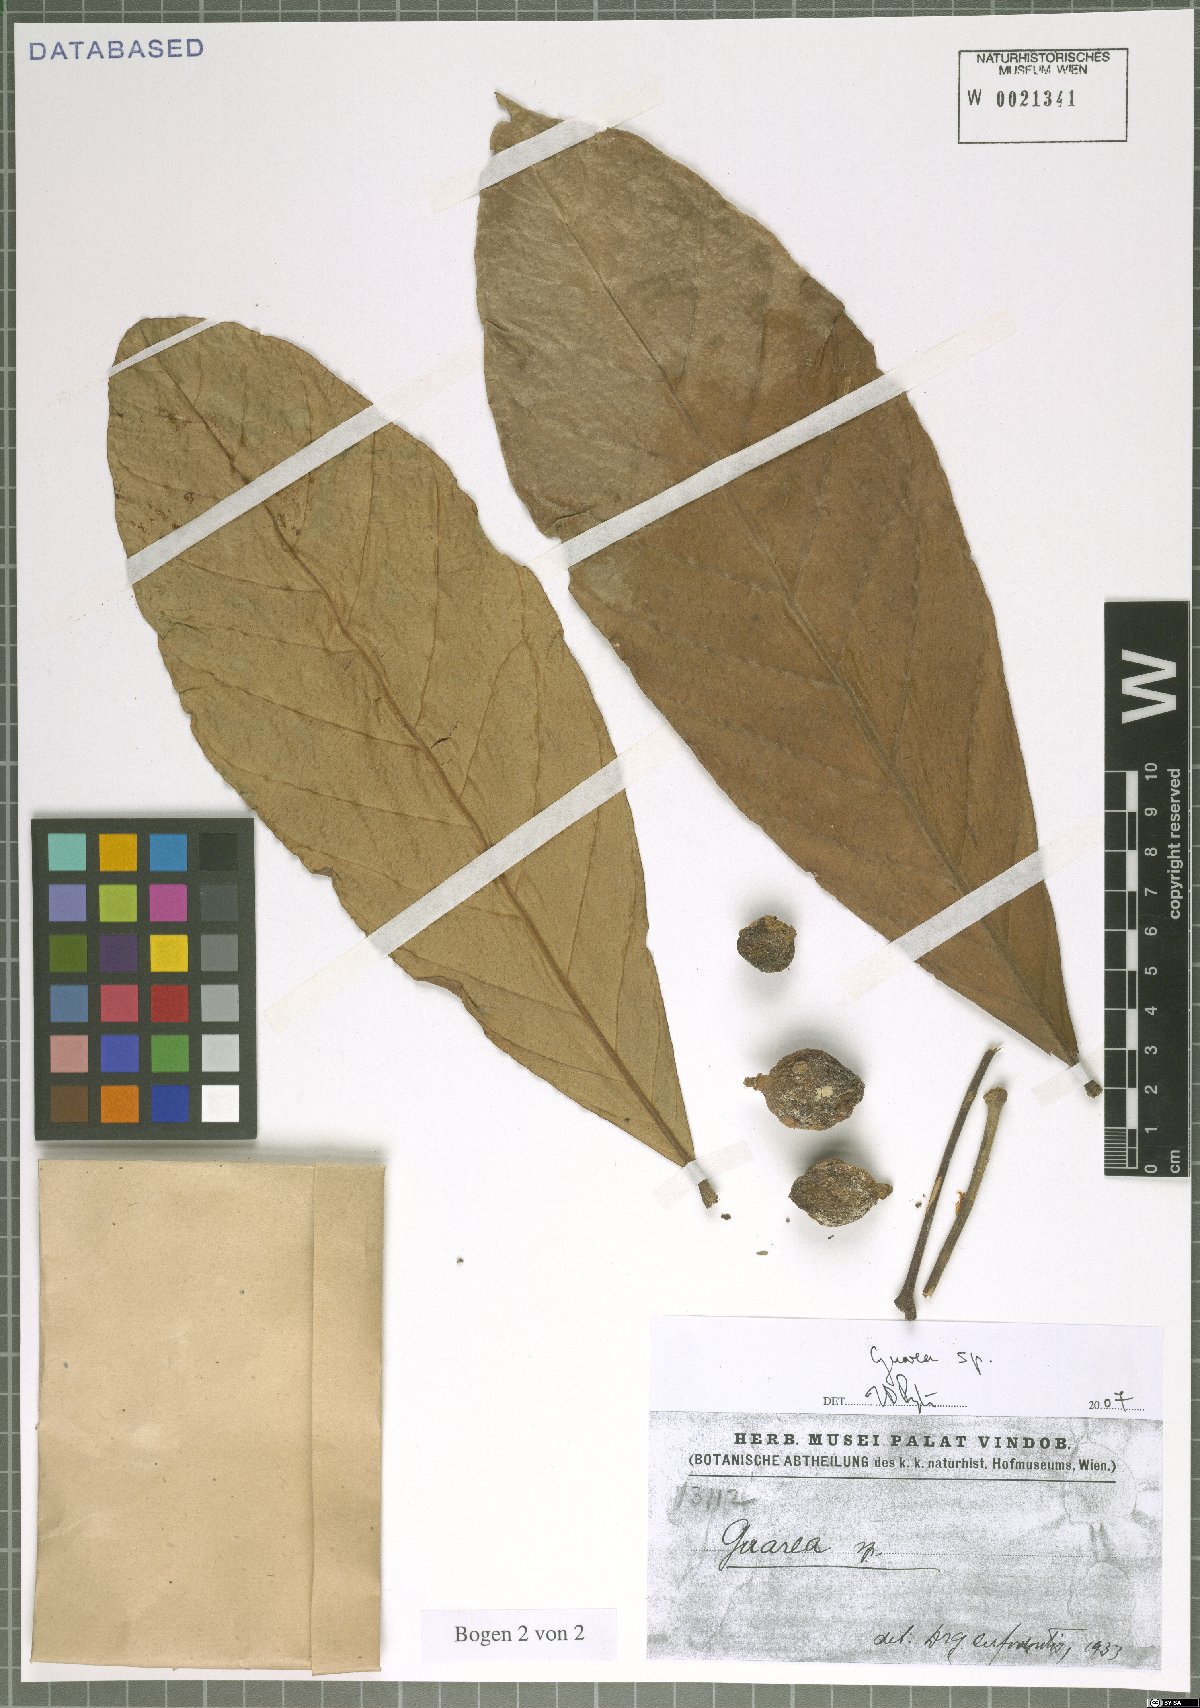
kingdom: Plantae
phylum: Tracheophyta
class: Magnoliopsida
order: Sapindales
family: Meliaceae
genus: Guarea
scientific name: Guarea
